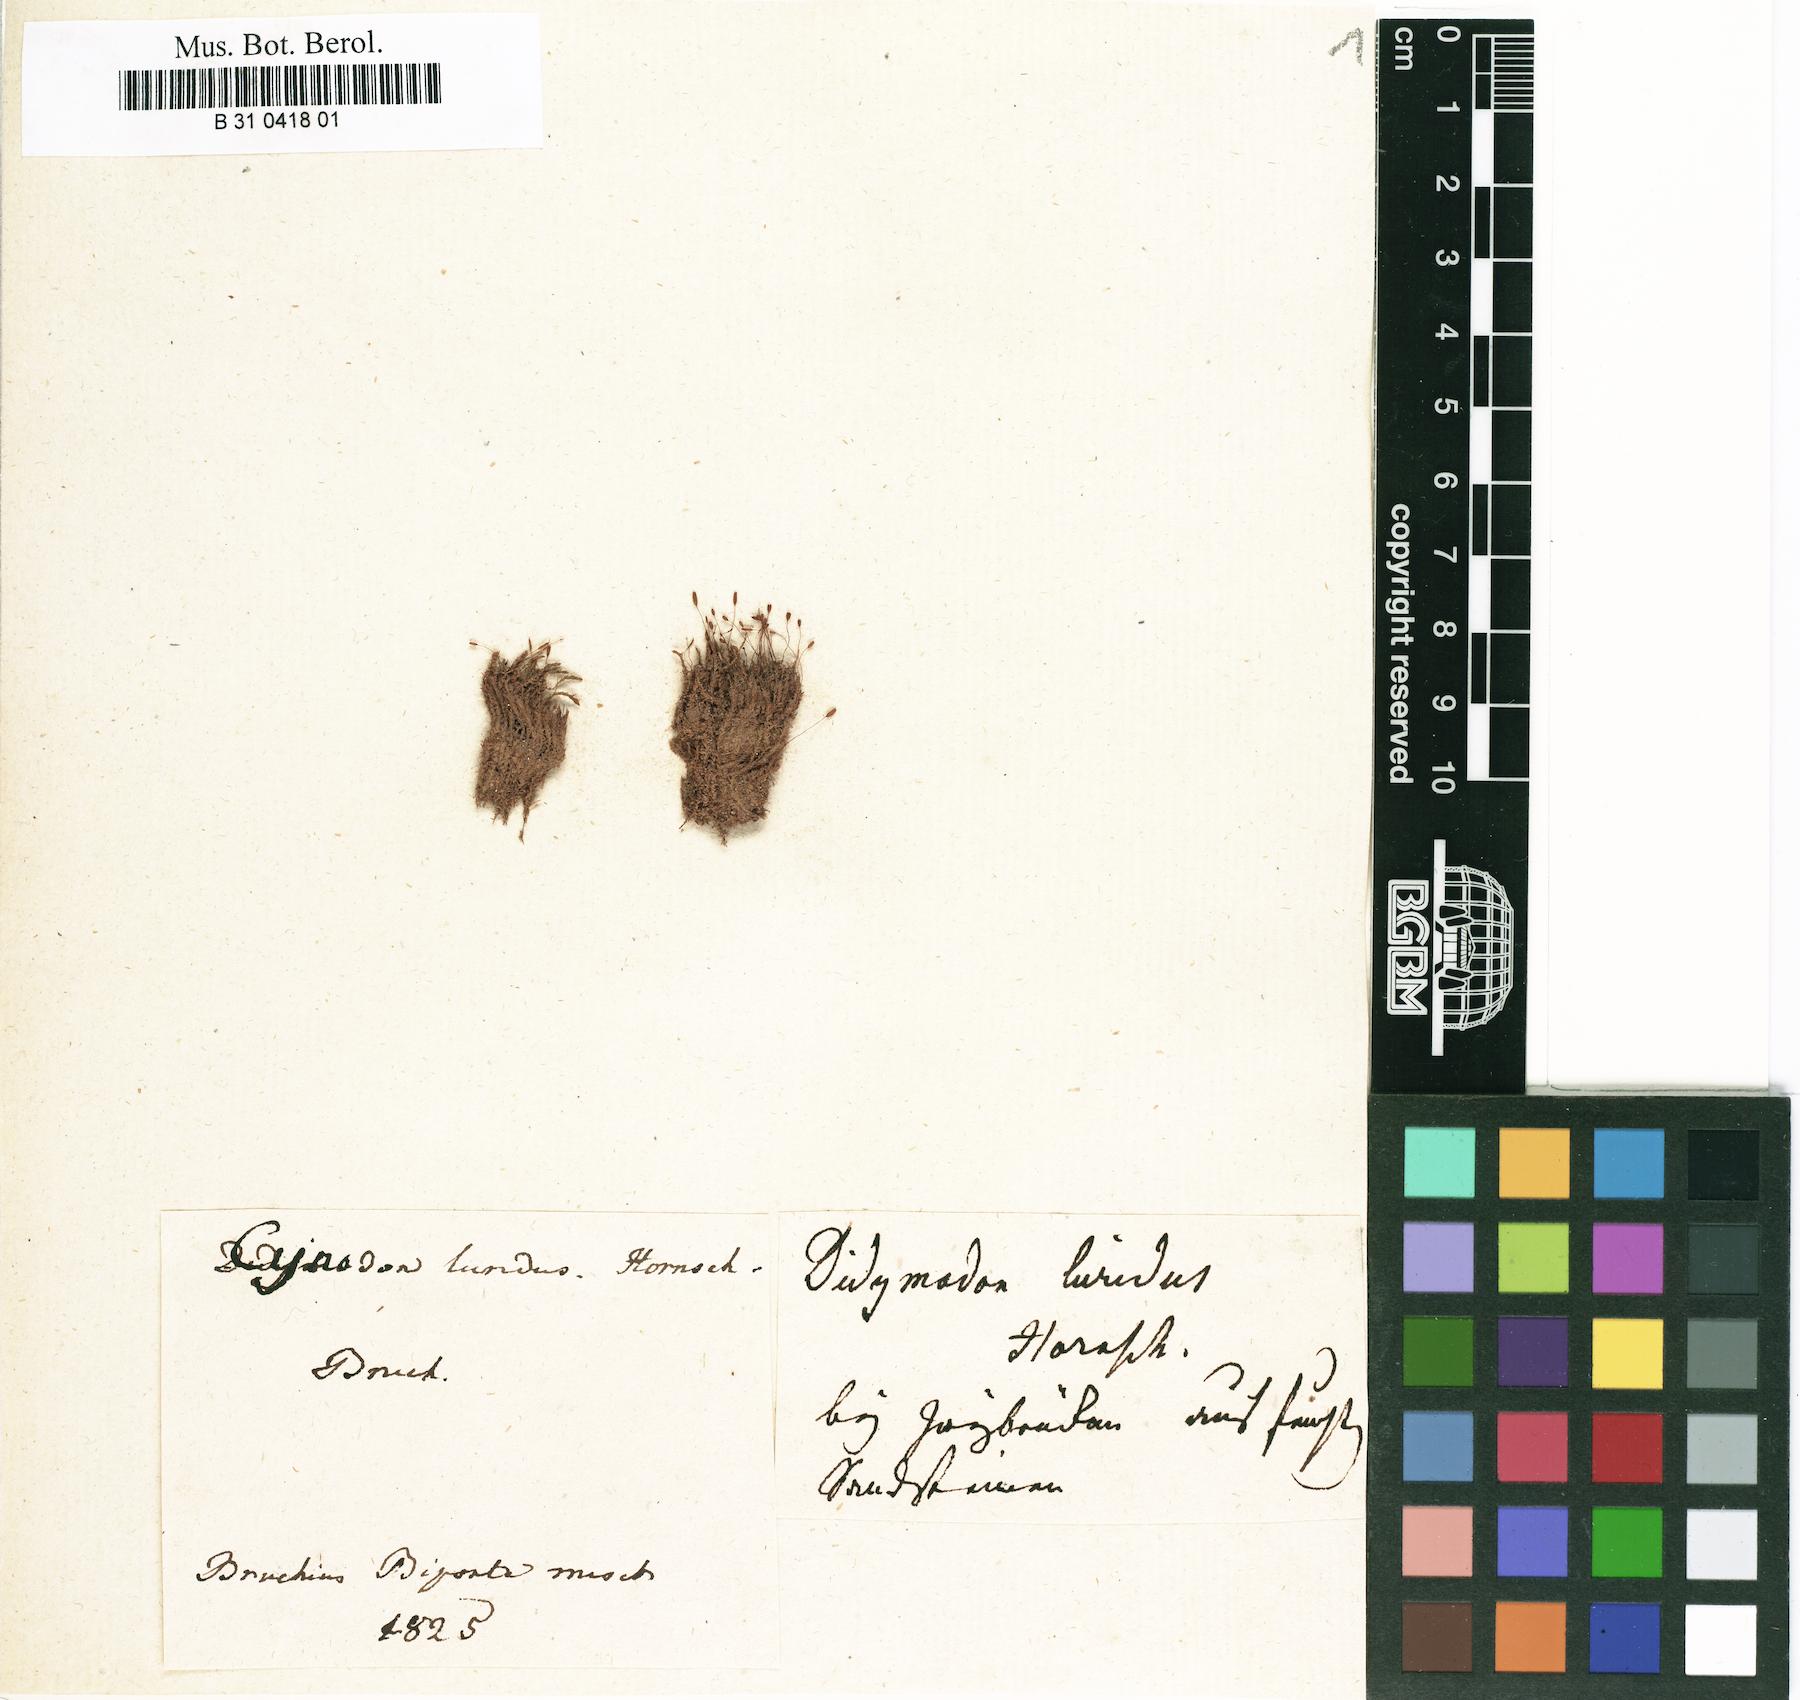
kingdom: Plantae
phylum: Bryophyta
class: Bryopsida
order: Grimmiales
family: Saelaniaceae
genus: Saelania
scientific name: Saelania glaucescens
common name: Blue dew-moss
